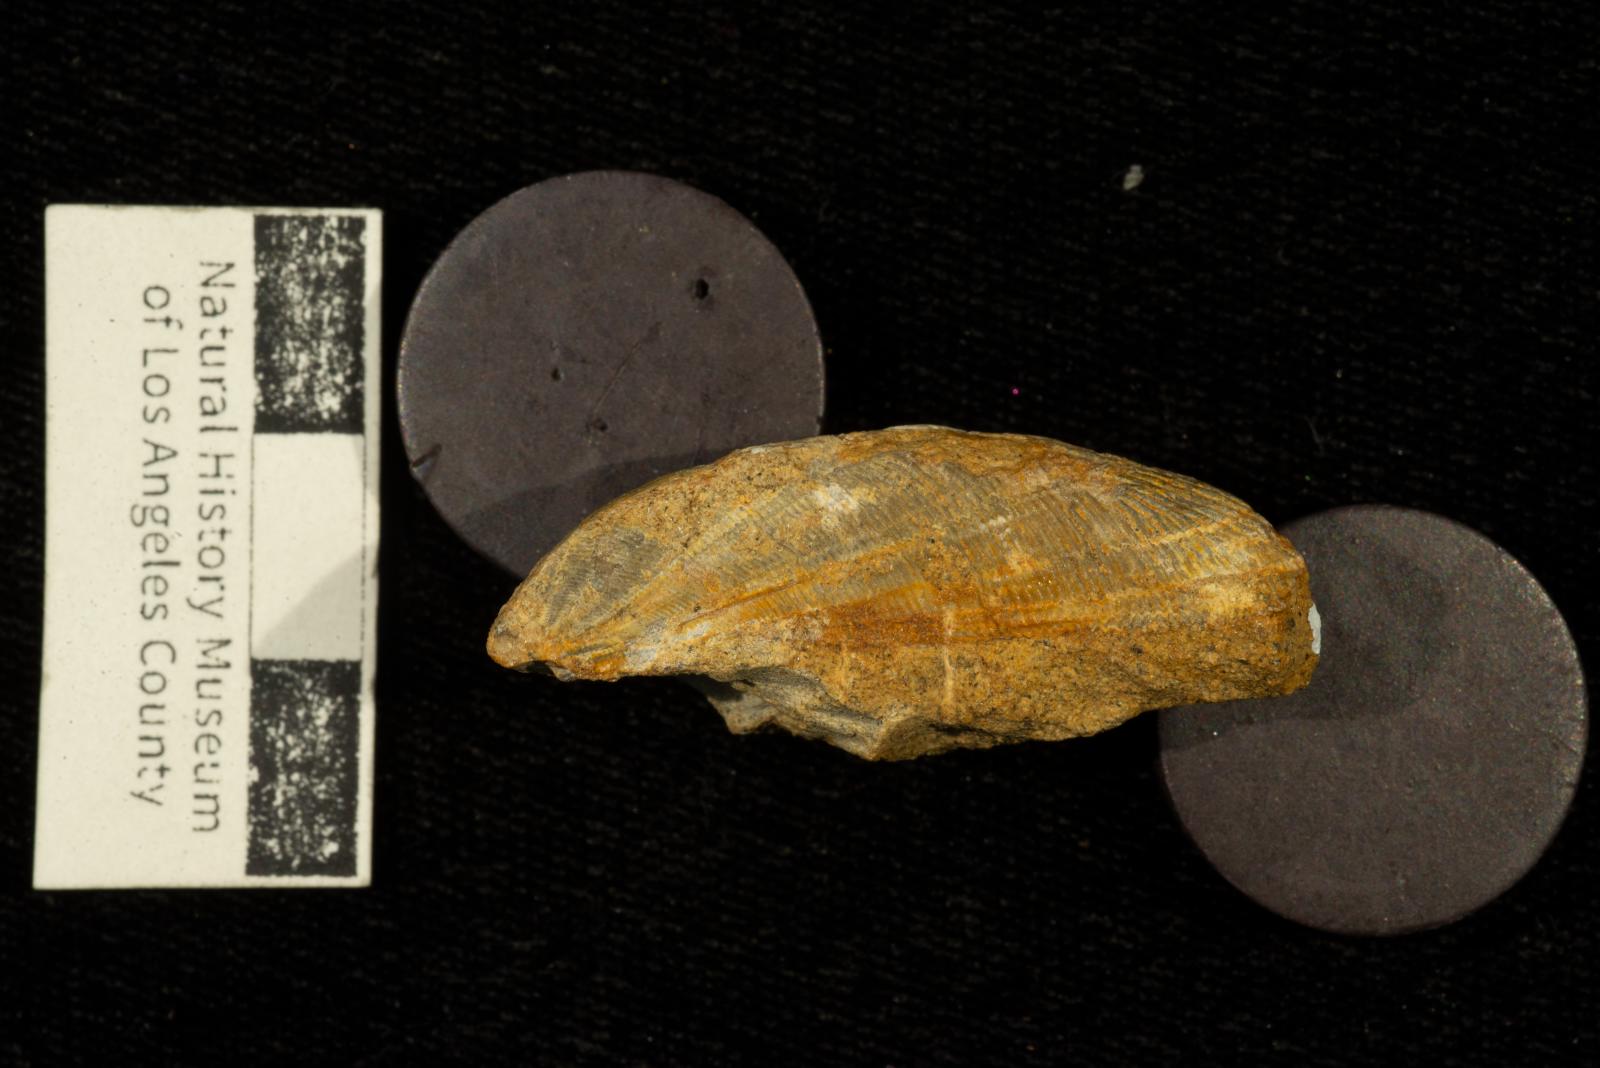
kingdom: Animalia
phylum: Mollusca
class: Bivalvia
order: Mytilida
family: Mytilidae
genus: Xenomytilus
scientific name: Xenomytilus fons
